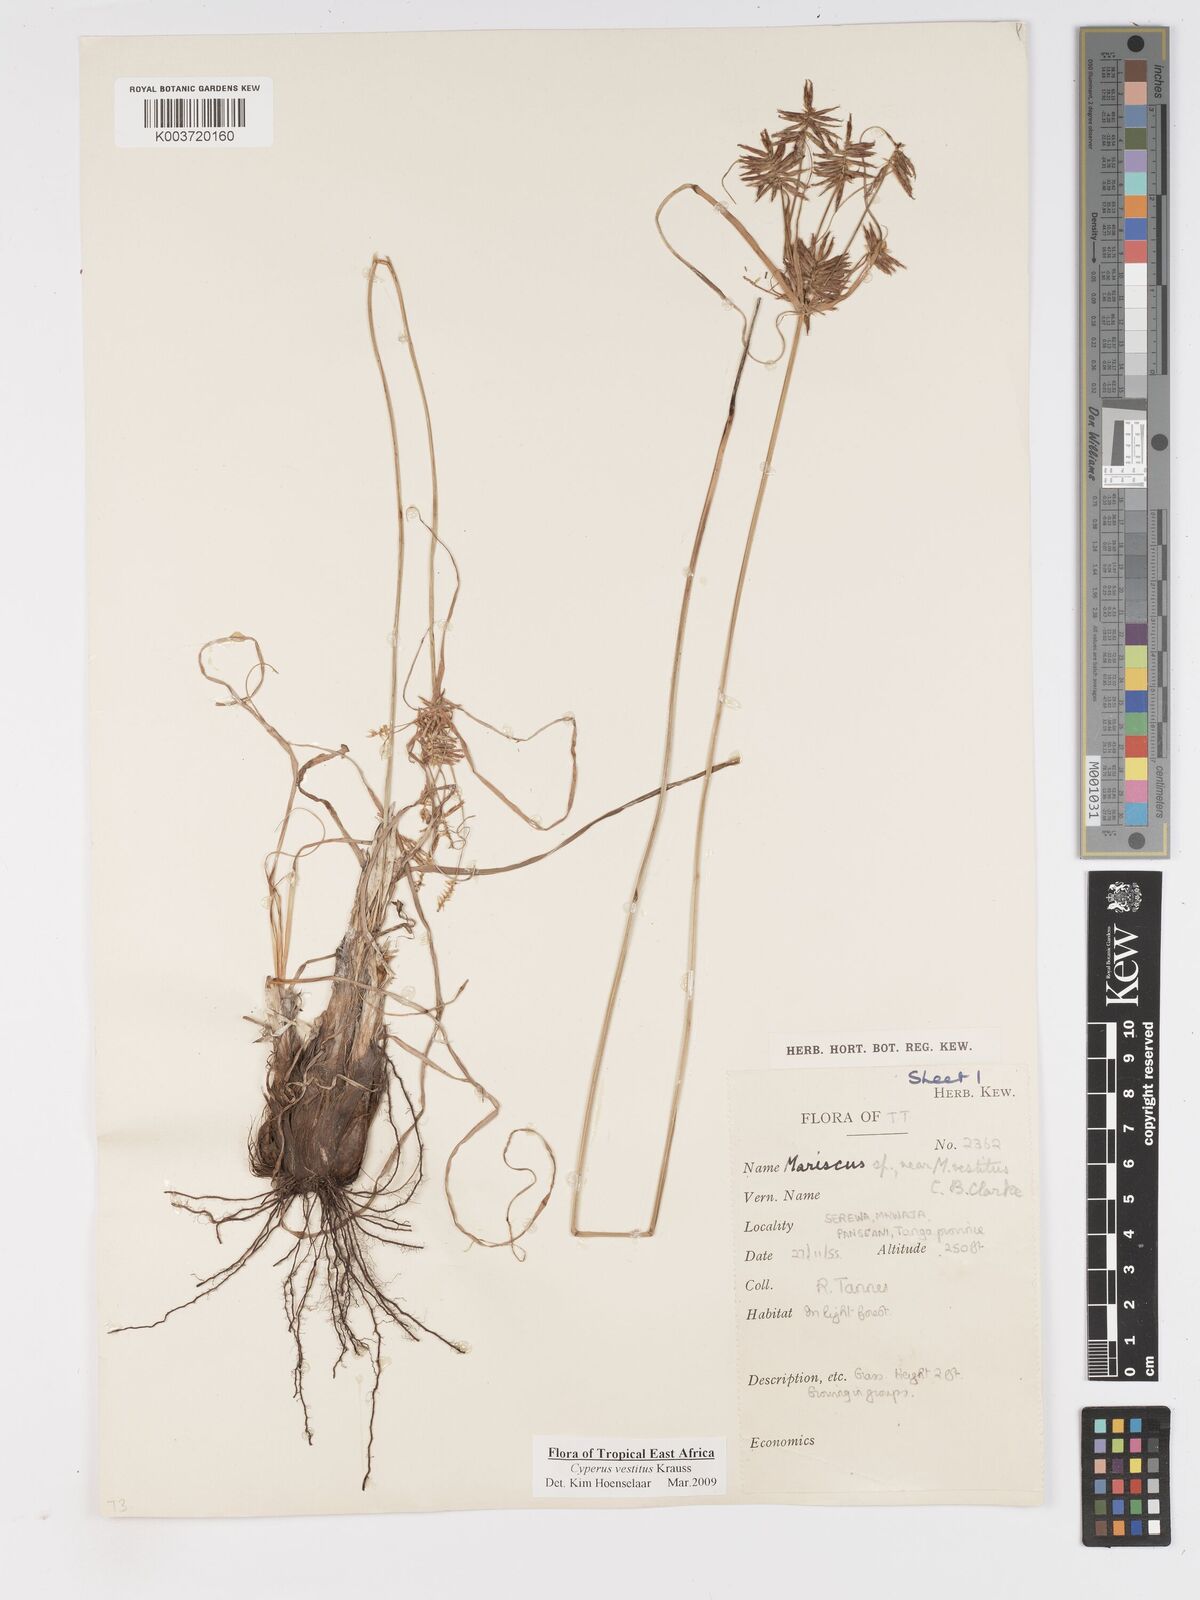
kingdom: Plantae
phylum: Tracheophyta
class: Liliopsida
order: Poales
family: Cyperaceae
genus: Cyperus
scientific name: Cyperus vestitus
